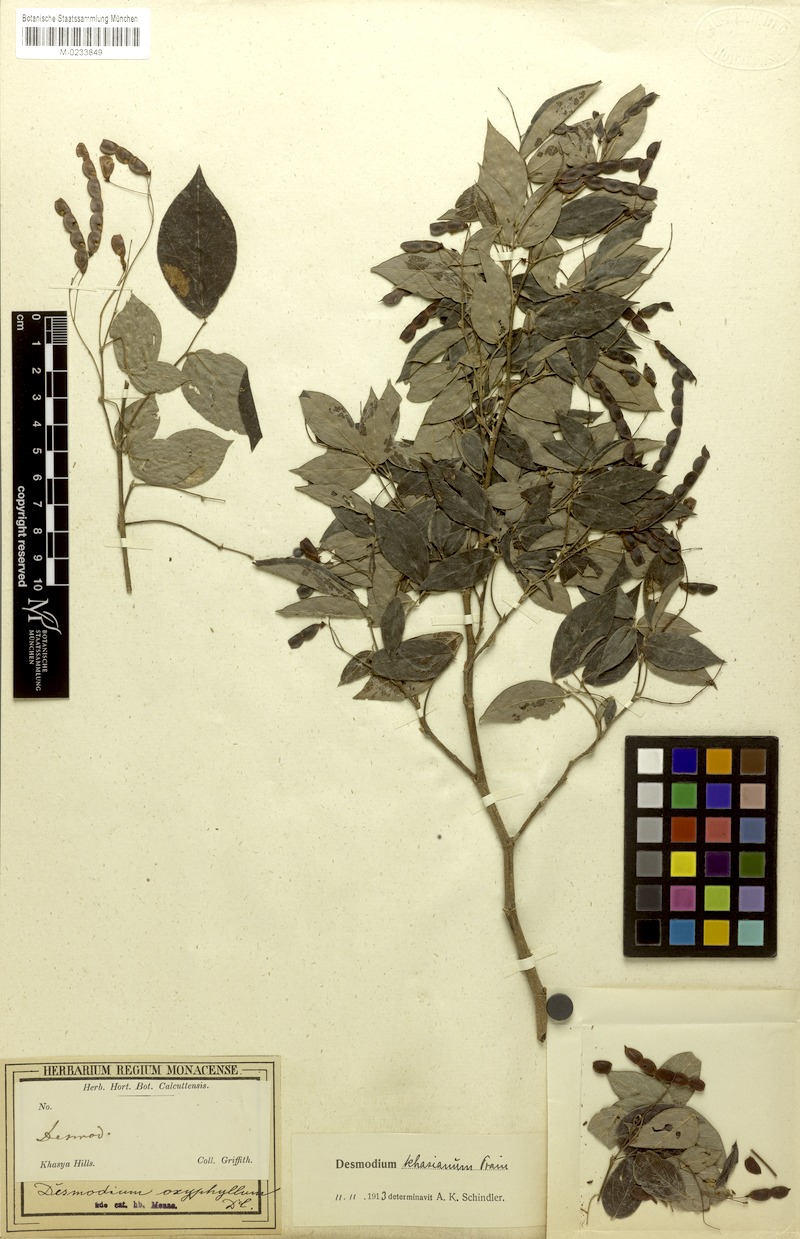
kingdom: Plantae
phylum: Tracheophyta
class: Magnoliopsida
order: Fabales
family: Fabaceae
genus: Ototropis
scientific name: Ototropis khasiana
